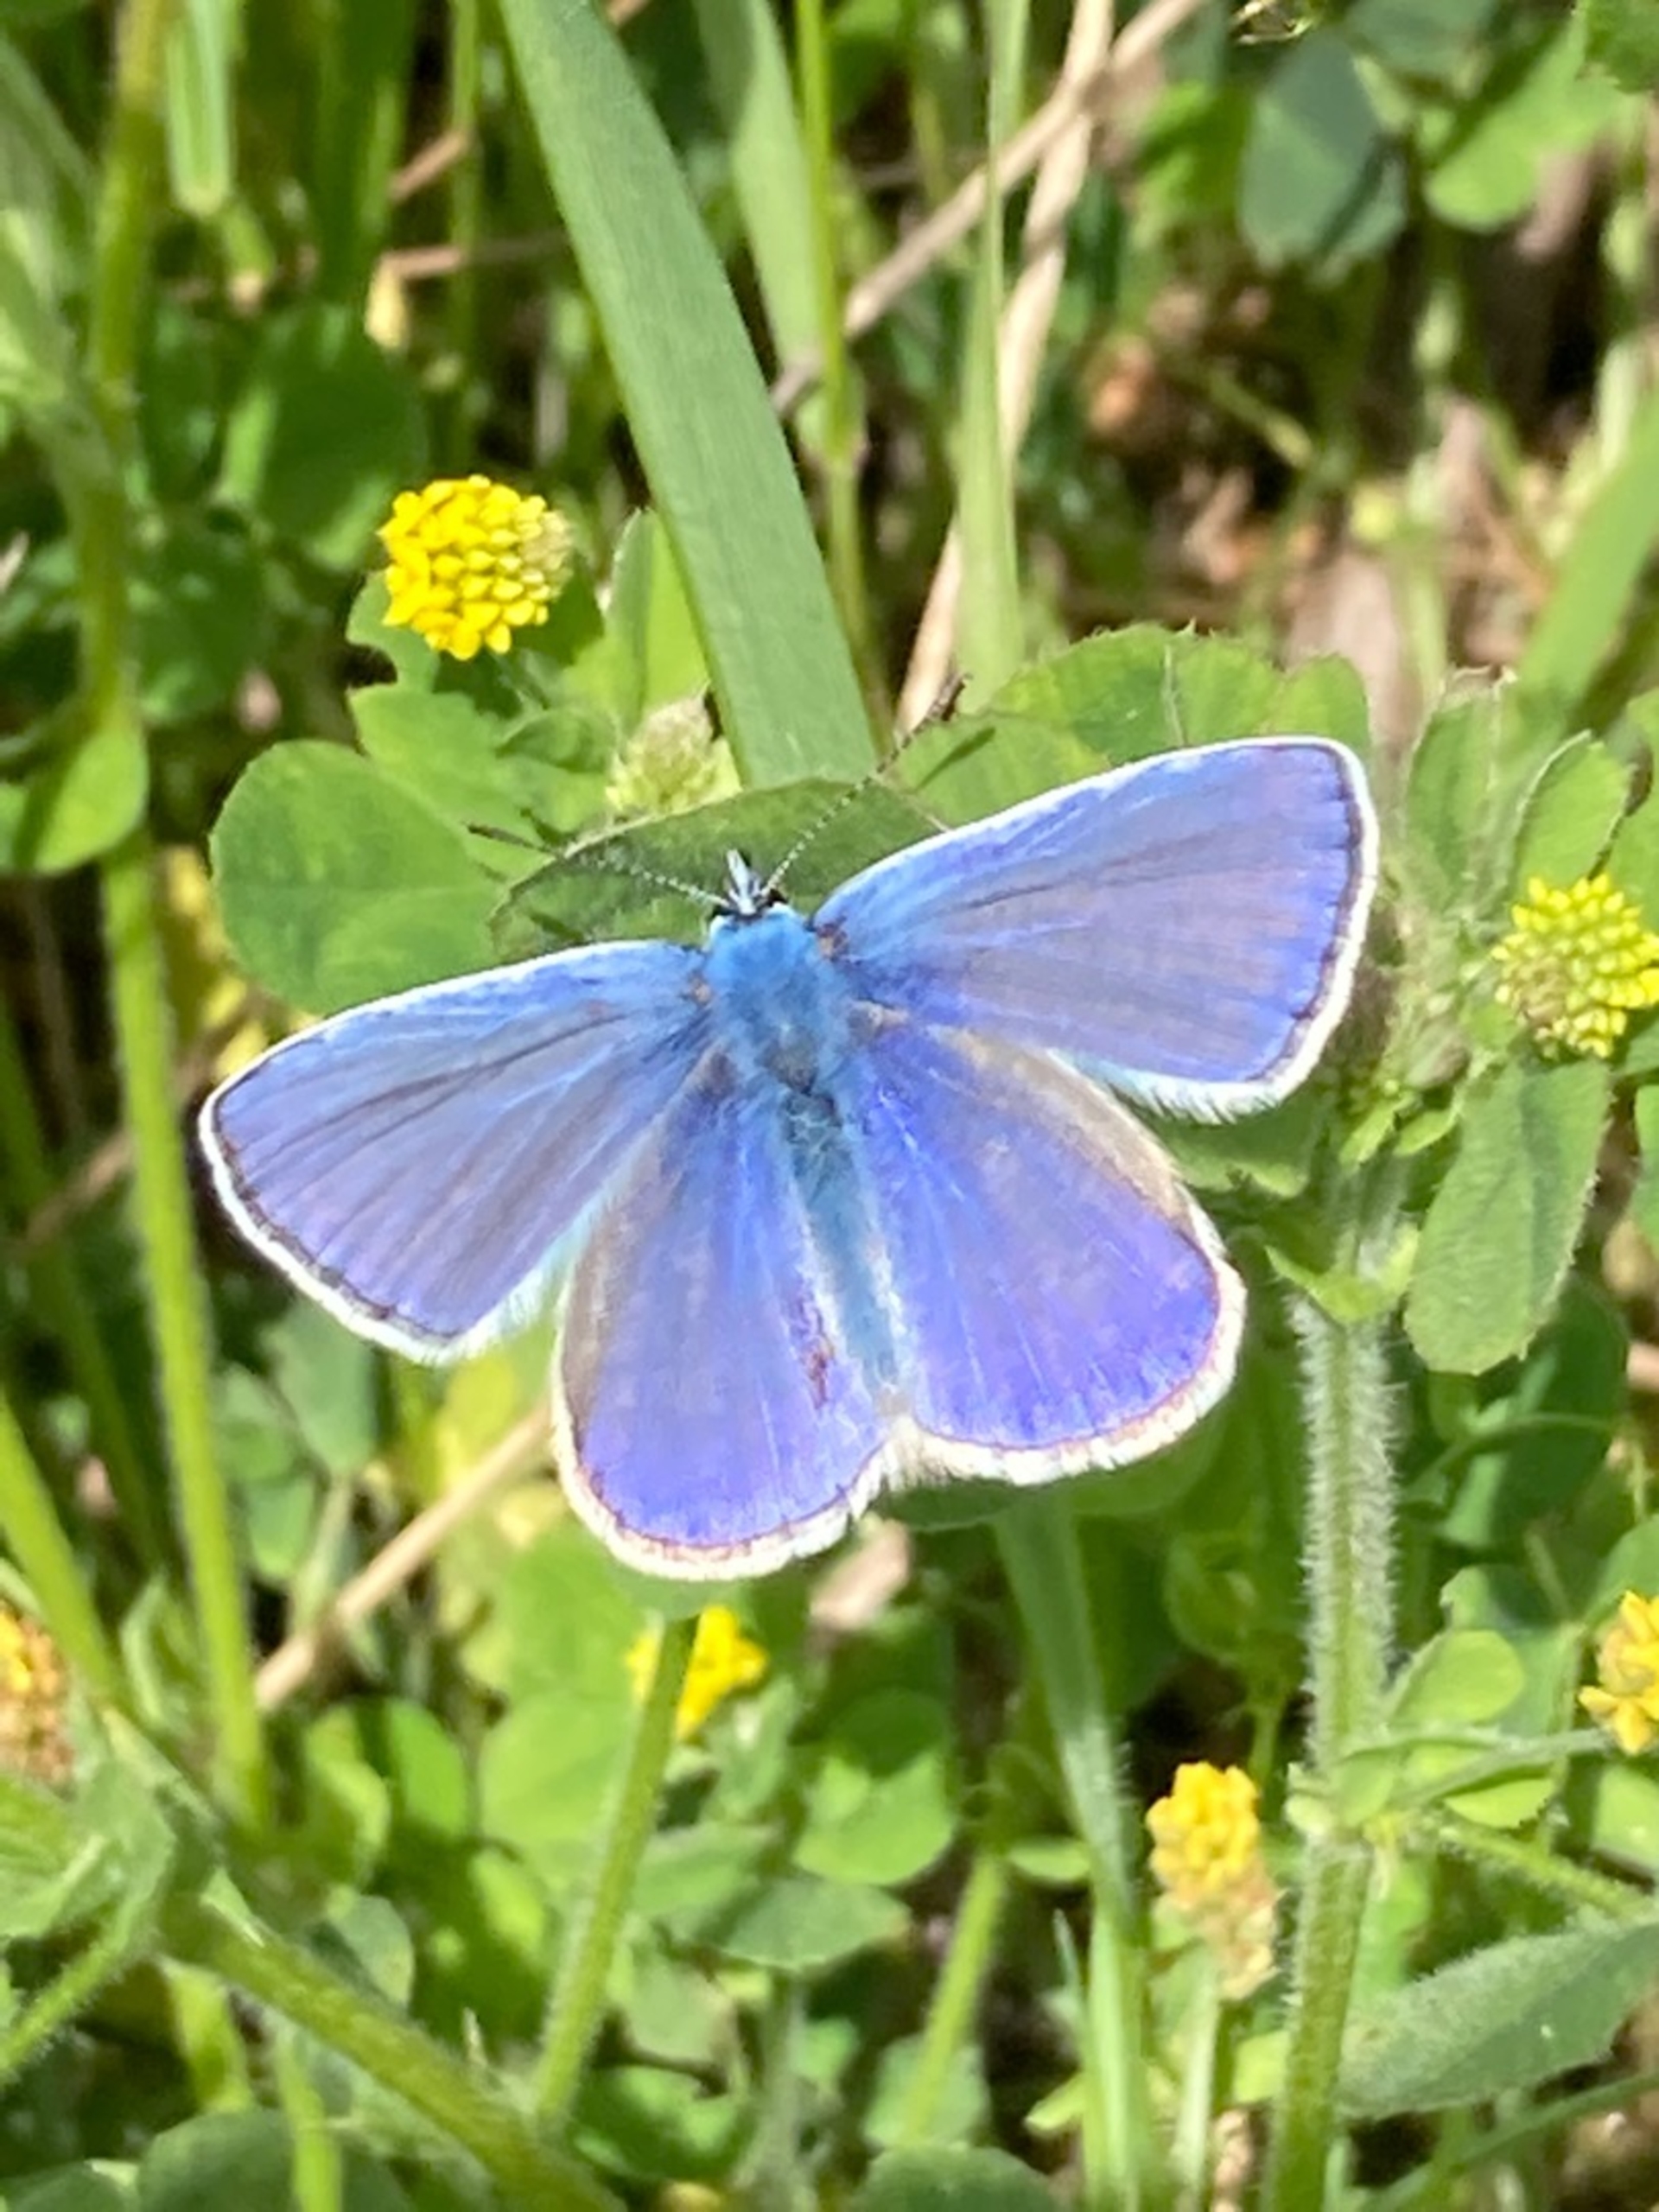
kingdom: Animalia
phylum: Arthropoda
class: Insecta
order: Lepidoptera
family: Lycaenidae
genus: Polyommatus
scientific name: Polyommatus icarus
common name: Almindelig blåfugl
